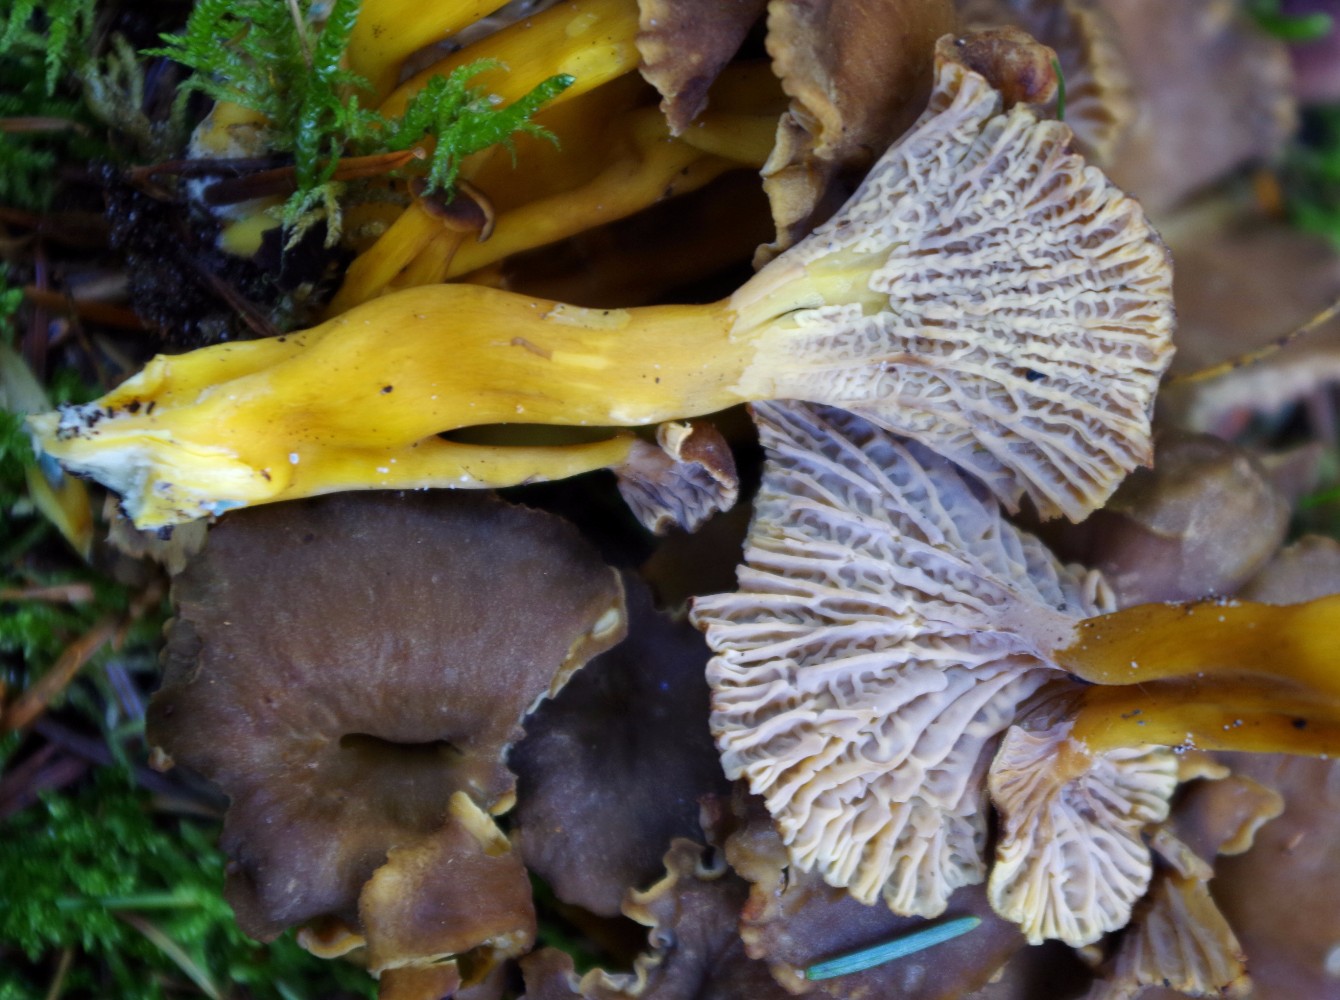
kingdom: Fungi
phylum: Basidiomycota
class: Agaricomycetes
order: Cantharellales
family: Hydnaceae
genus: Craterellus
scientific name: Craterellus tubaeformis
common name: tragt-kantarel
